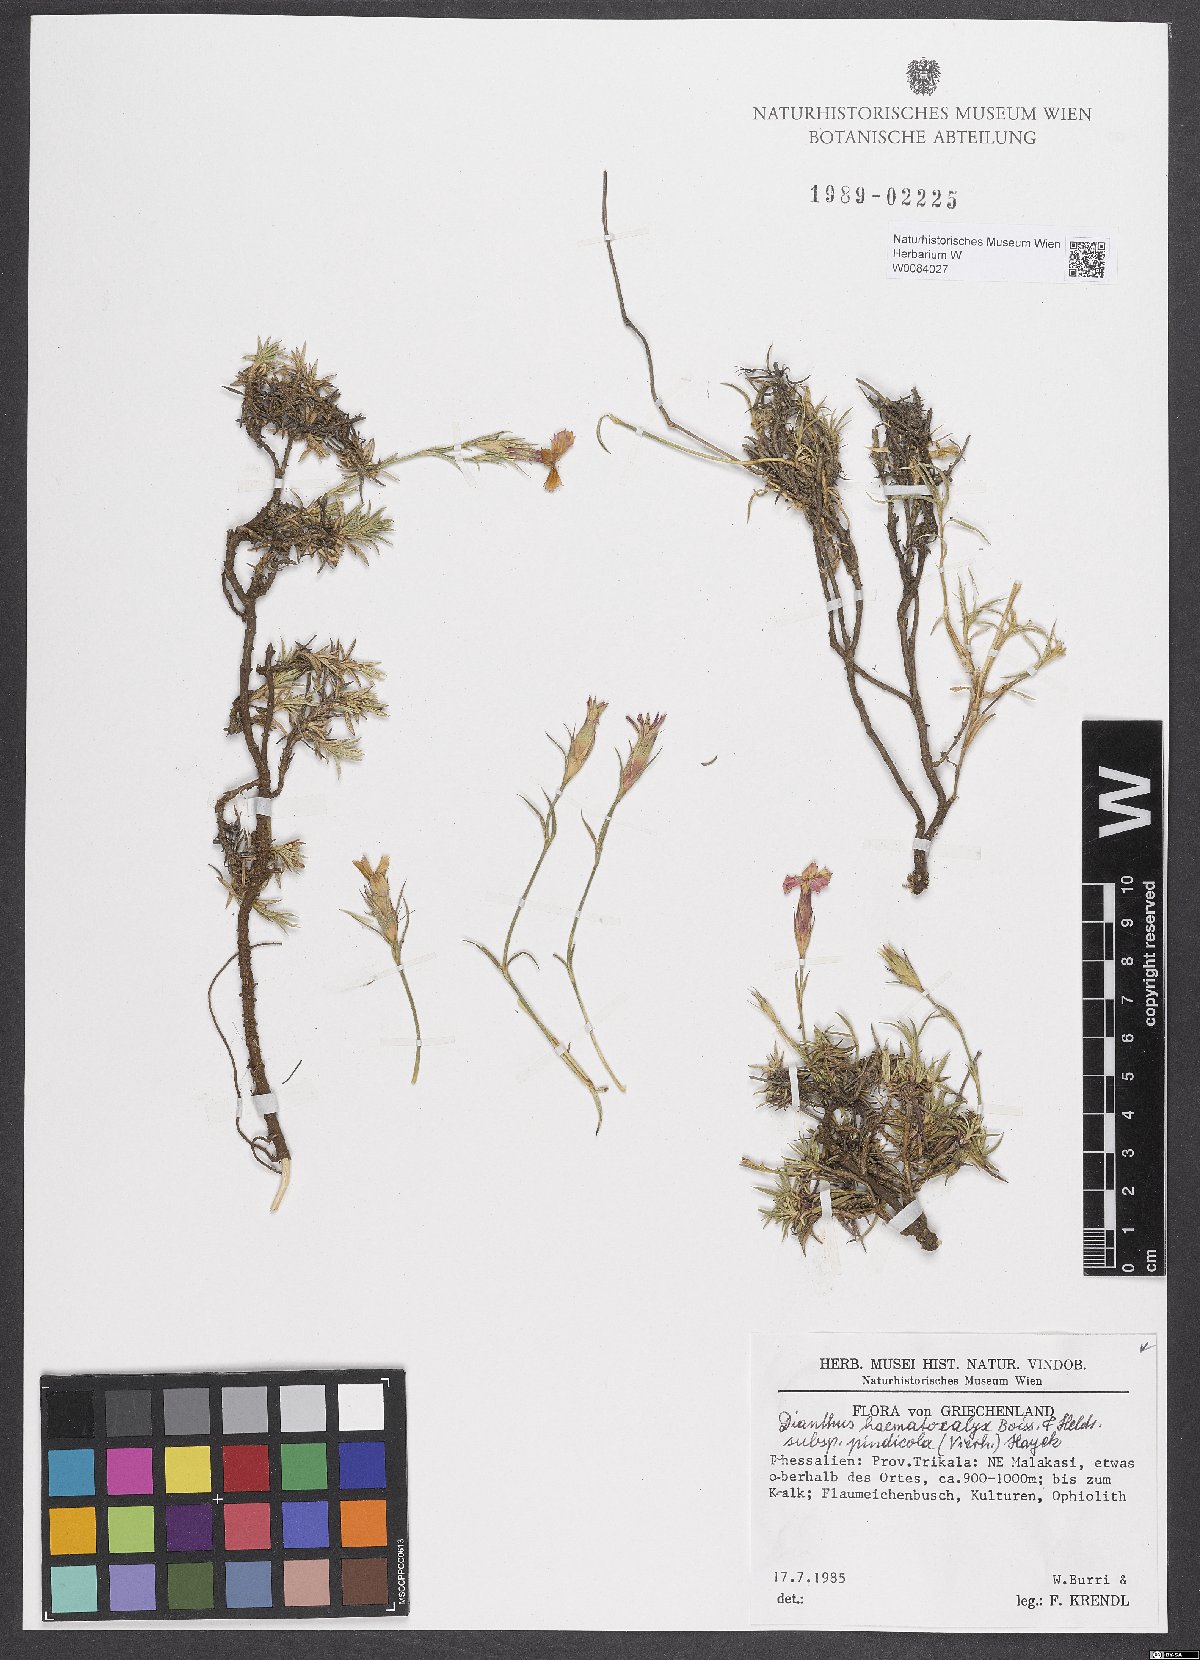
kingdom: Plantae
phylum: Tracheophyta
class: Magnoliopsida
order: Caryophyllales
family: Caryophyllaceae
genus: Dianthus
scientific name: Dianthus haematocalyx
